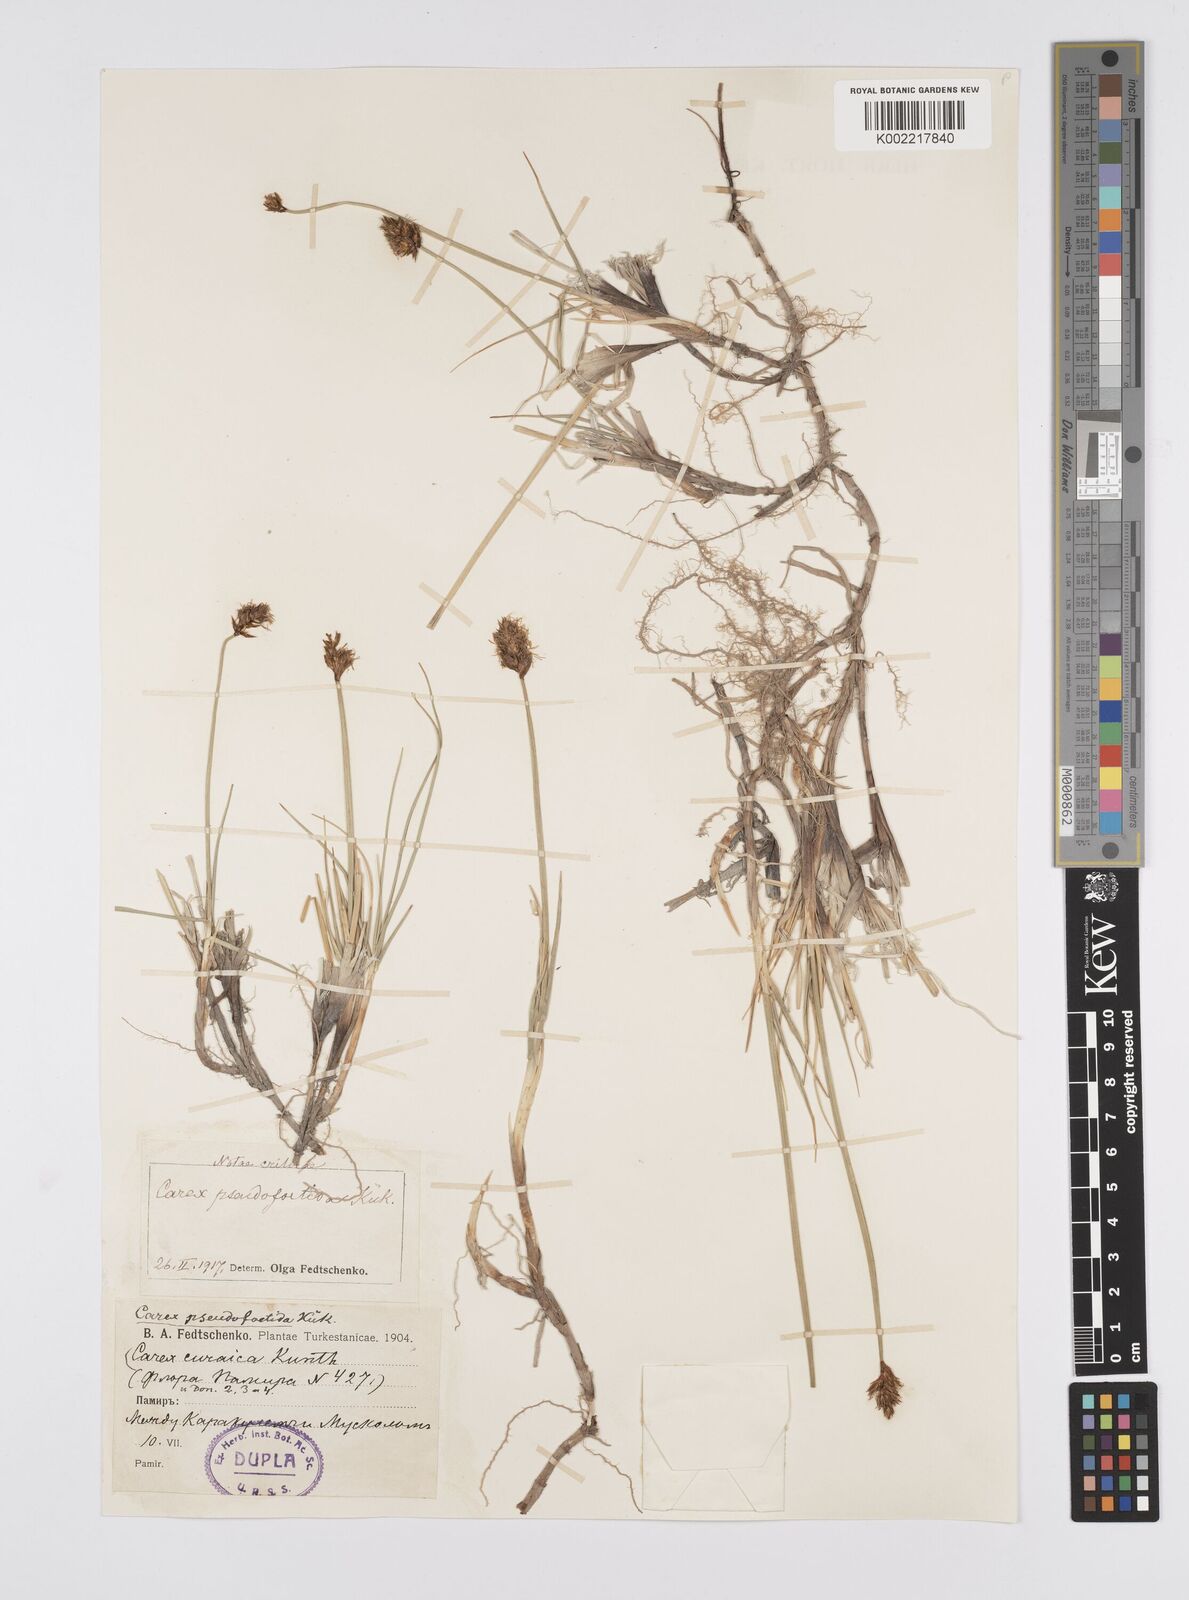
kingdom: Plantae
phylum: Tracheophyta
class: Liliopsida
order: Poales
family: Cyperaceae
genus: Carex
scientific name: Carex pseudofoetida
